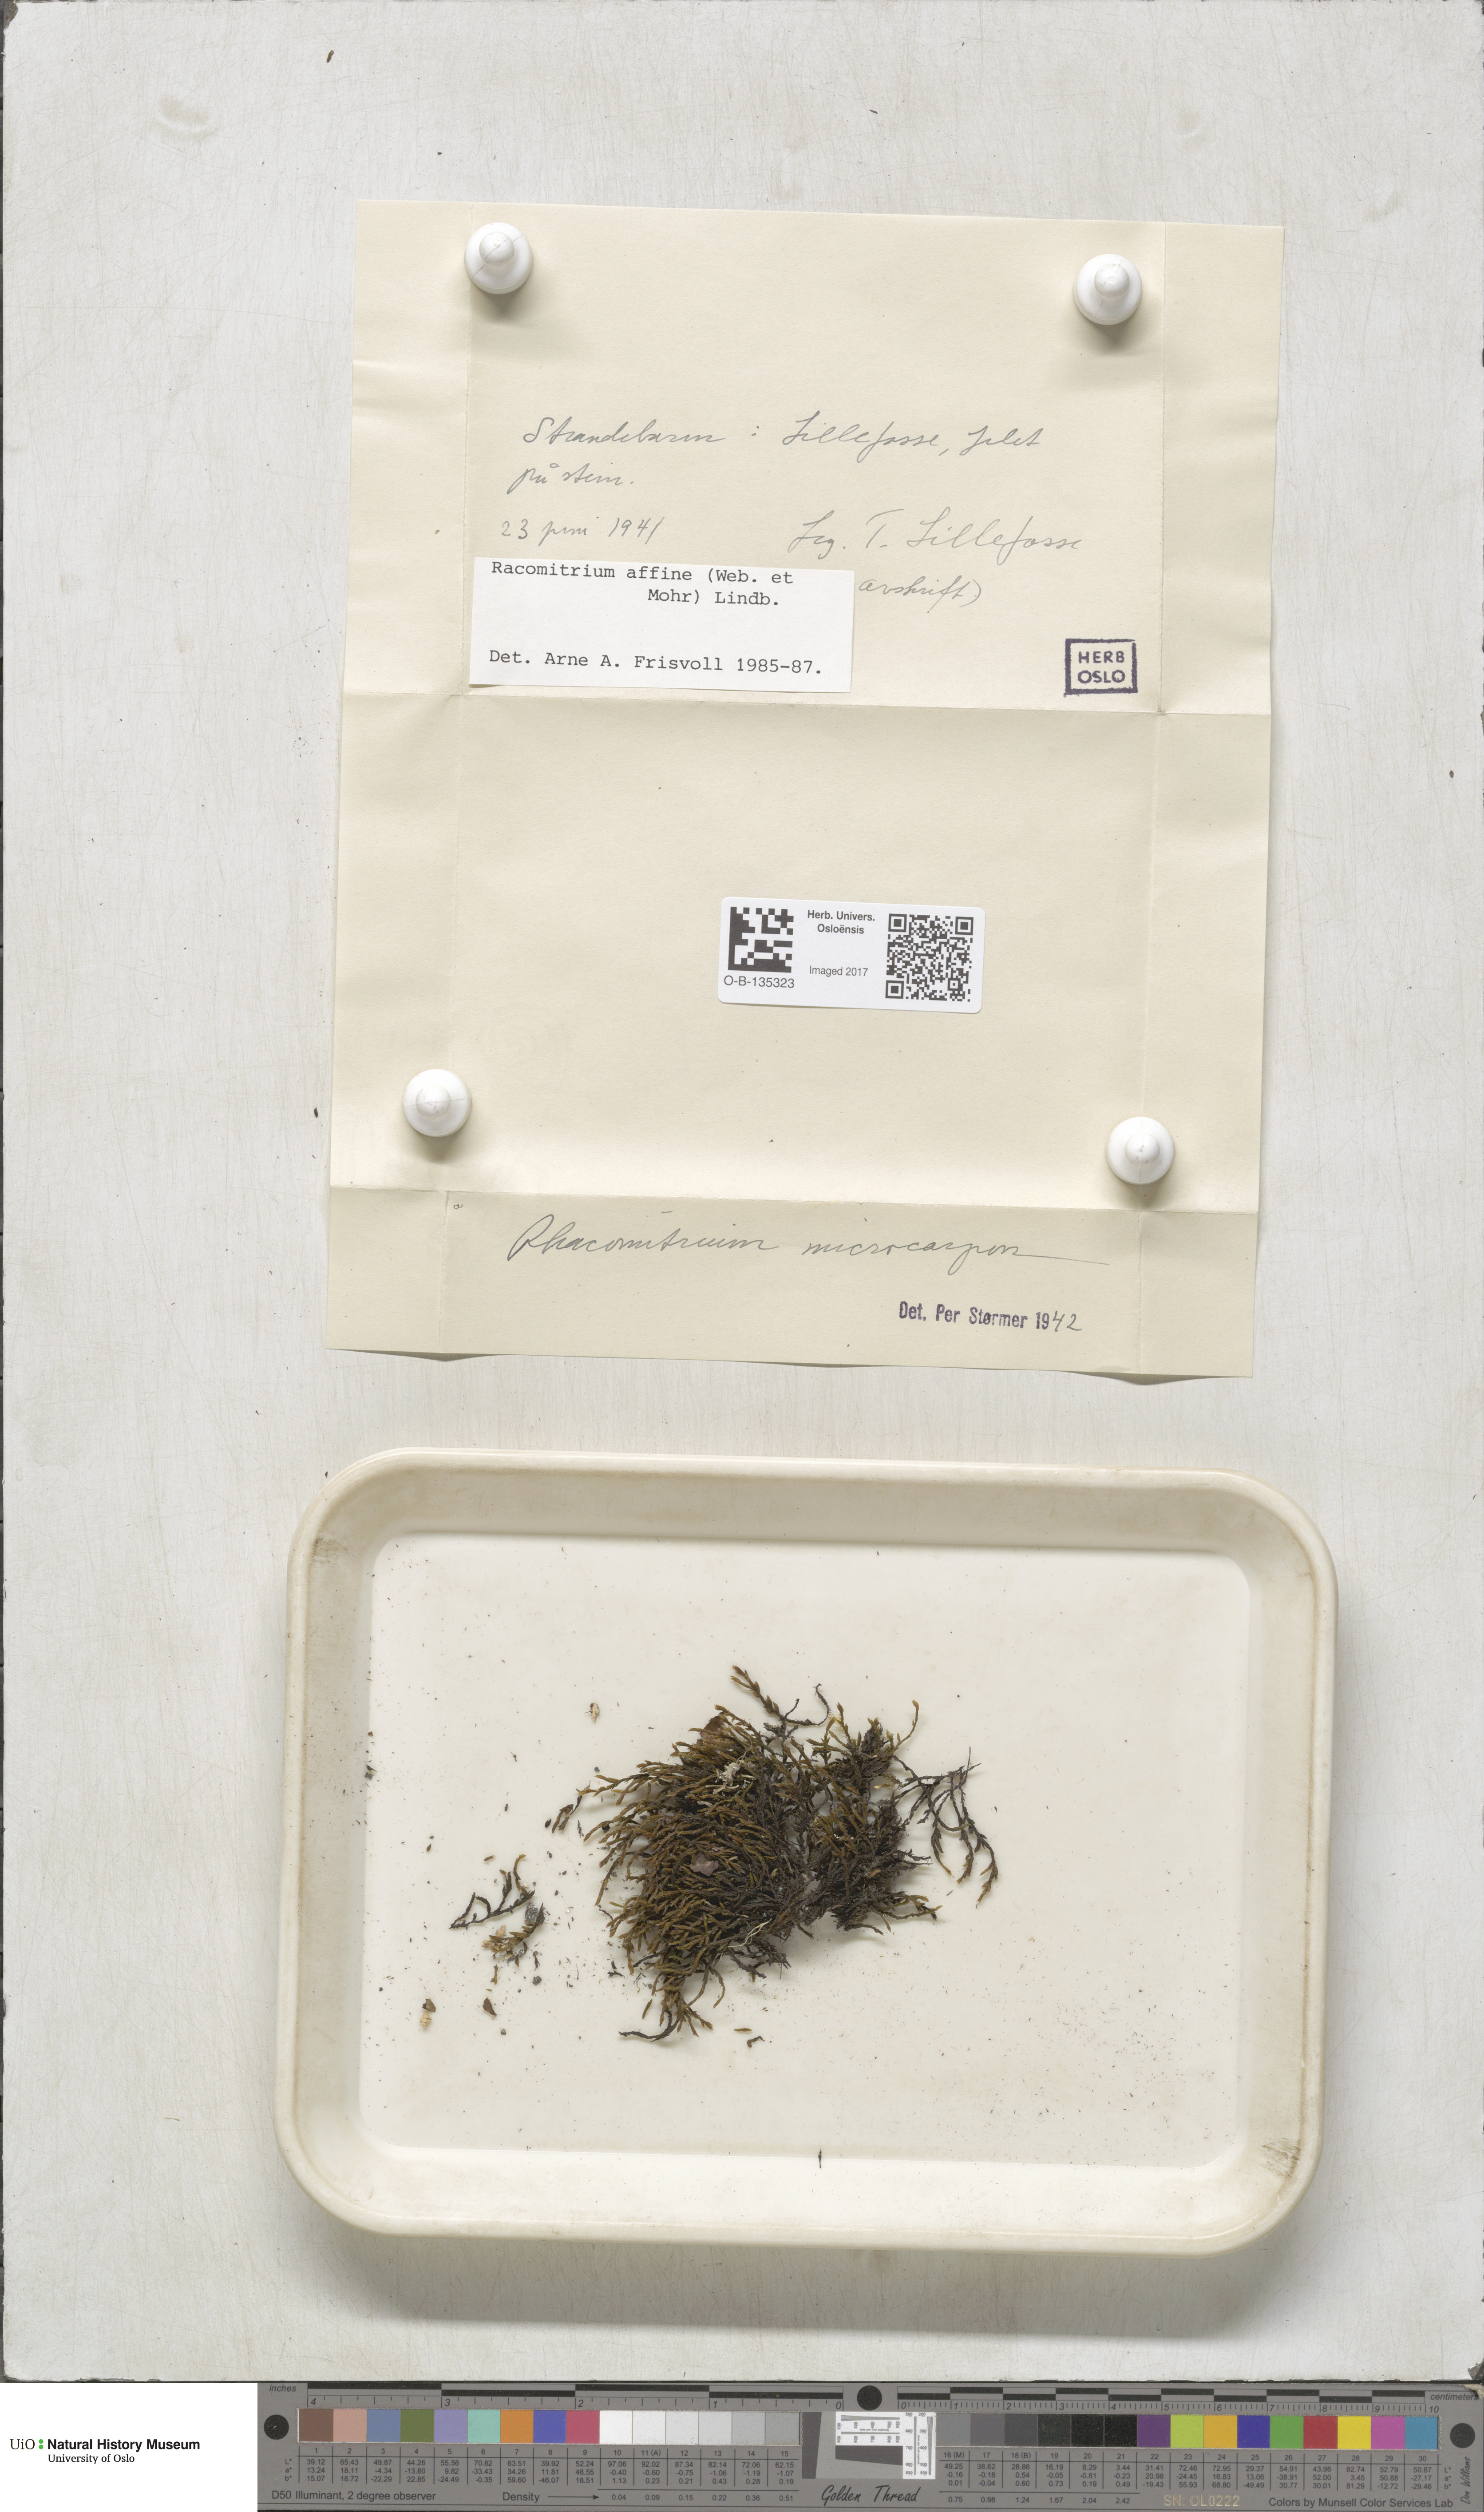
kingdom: Plantae
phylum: Bryophyta
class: Bryopsida
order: Grimmiales
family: Grimmiaceae
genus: Bucklandiella
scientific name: Bucklandiella affinis
